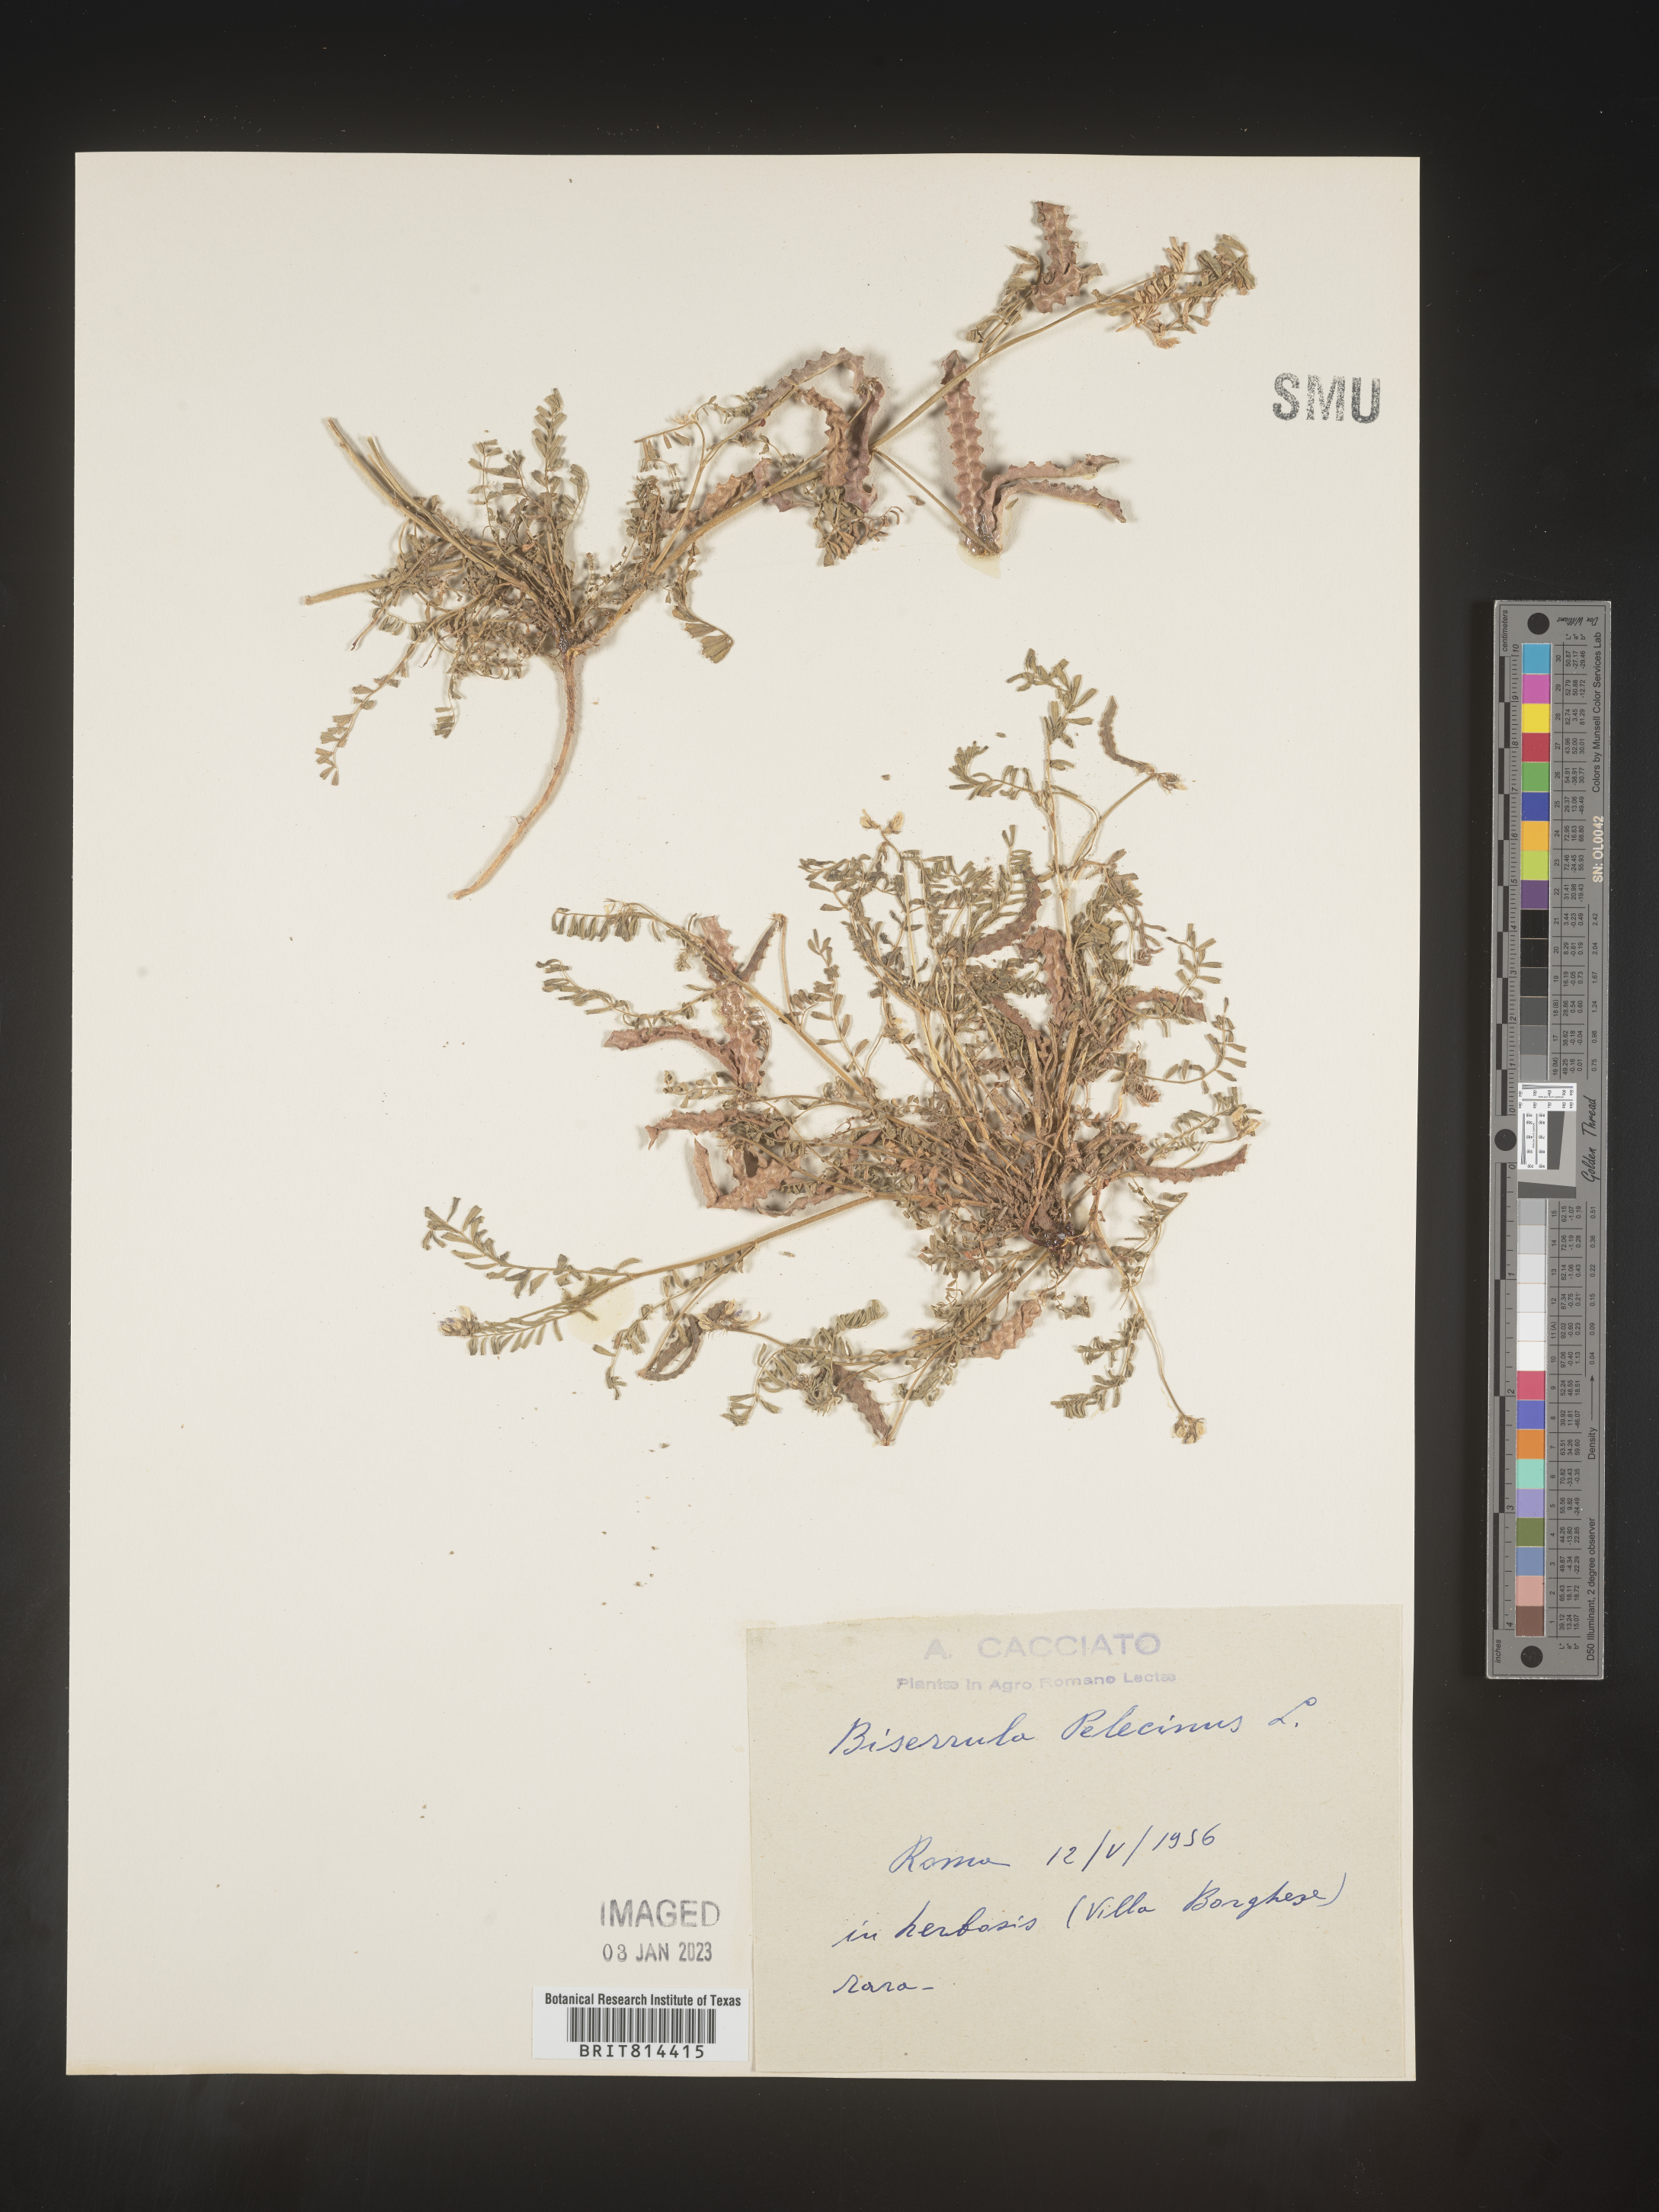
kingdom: Plantae
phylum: Tracheophyta
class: Magnoliopsida
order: Fabales
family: Fabaceae
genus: Biserrula
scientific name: Biserrula
